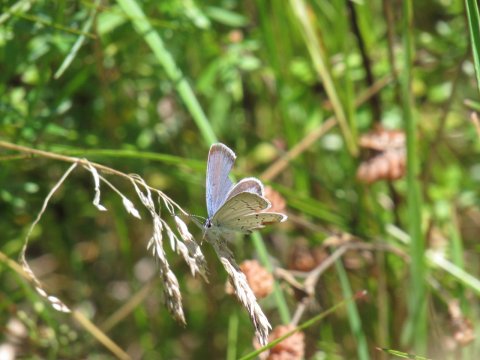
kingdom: Animalia
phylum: Arthropoda
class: Insecta
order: Lepidoptera
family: Lycaenidae
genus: Elkalyce
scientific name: Elkalyce comyntas
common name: Eastern Tailed-Blue
